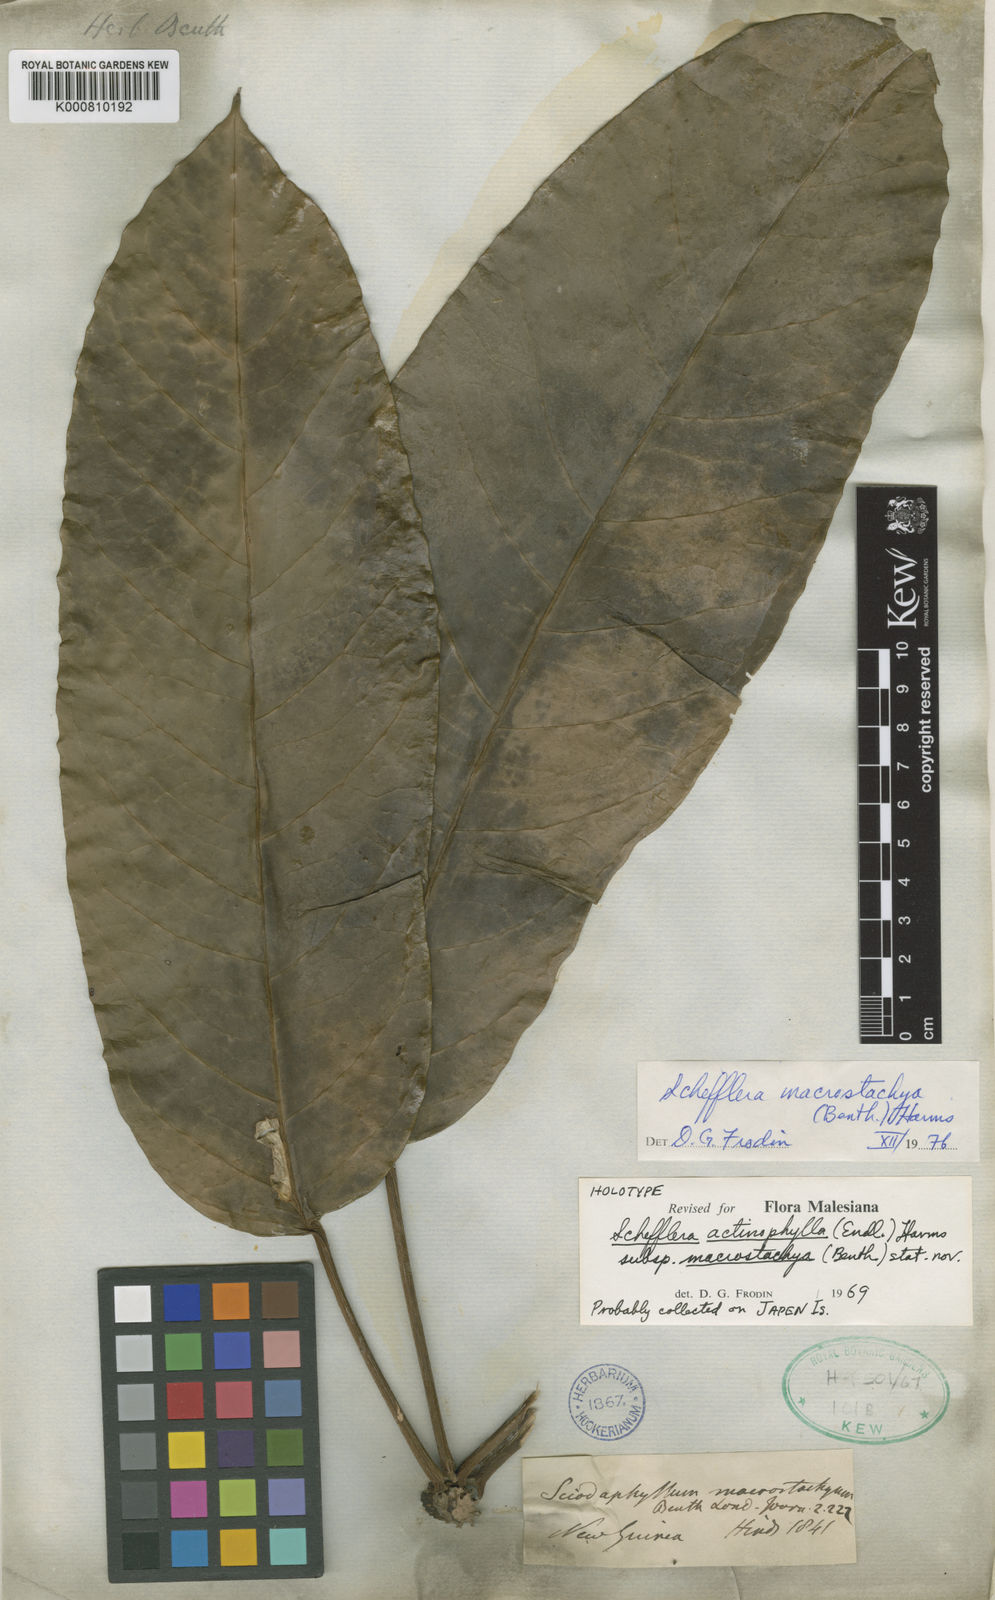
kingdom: Plantae
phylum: Tracheophyta
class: Magnoliopsida
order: Apiales
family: Araliaceae
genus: Heptapleurum
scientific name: Heptapleurum macrostachyum
